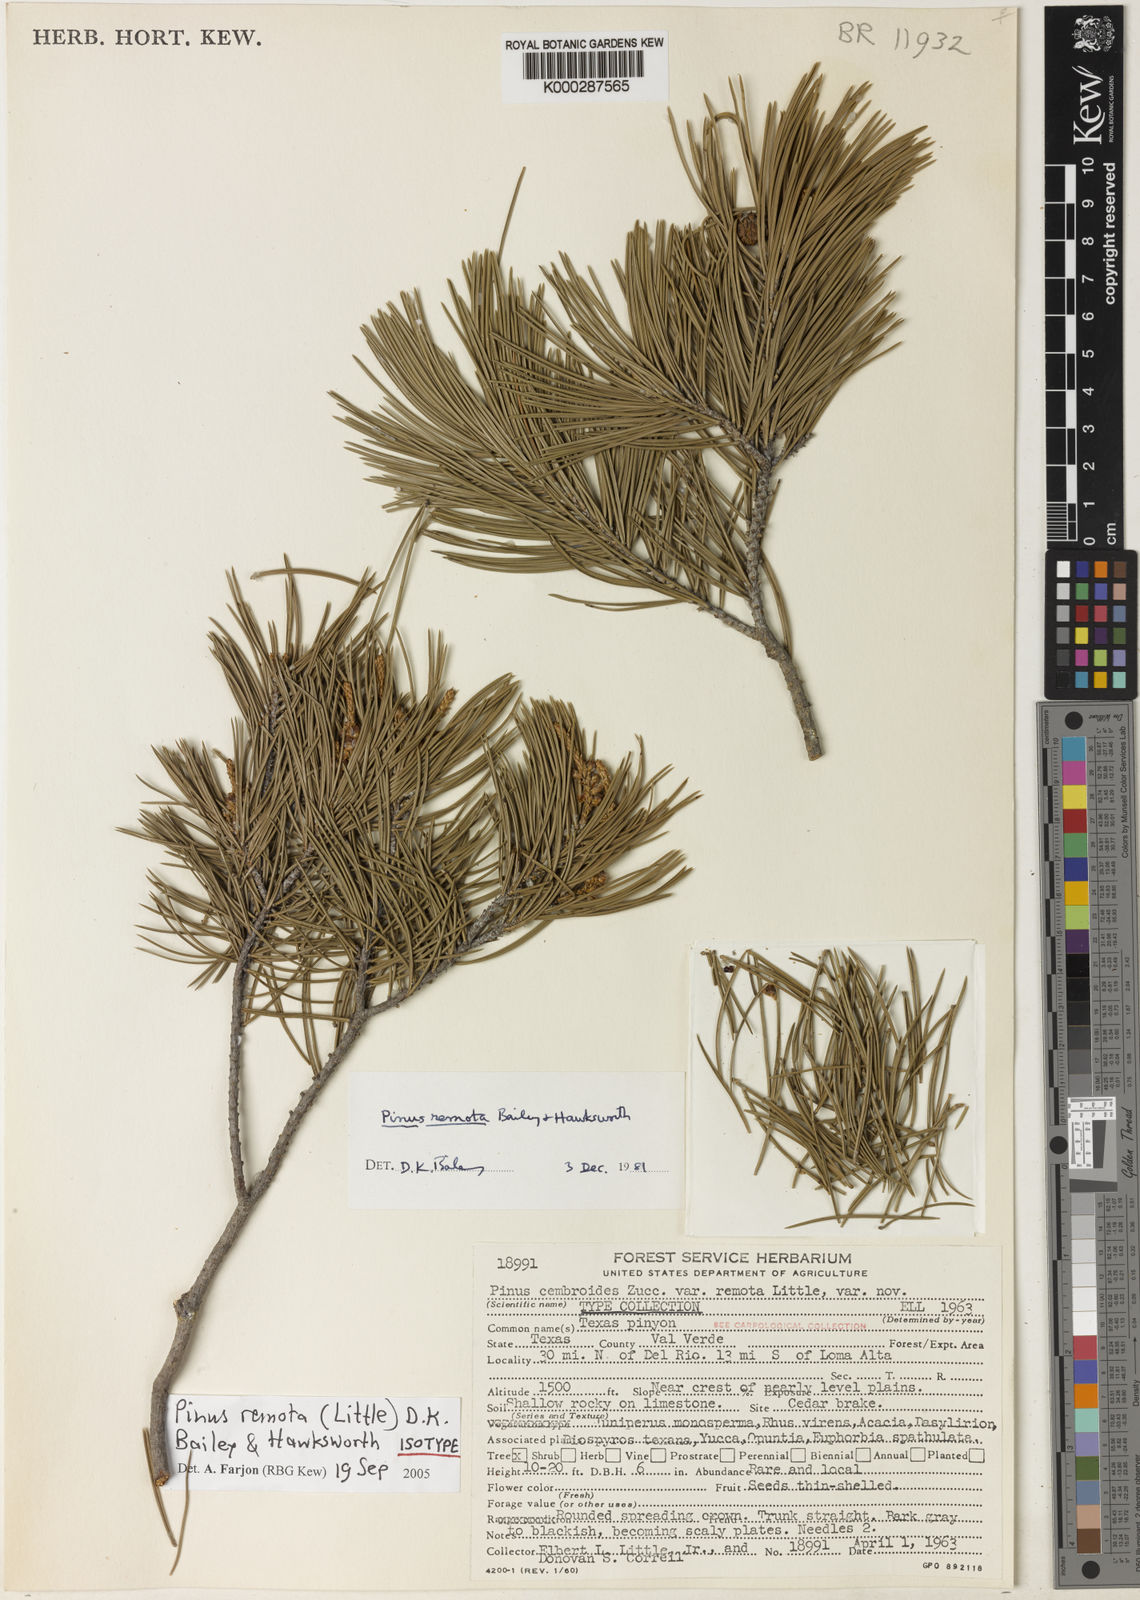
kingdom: Plantae
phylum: Tracheophyta
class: Pinopsida
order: Pinales
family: Pinaceae
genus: Pinus
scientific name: Pinus remota
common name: Nut pine
